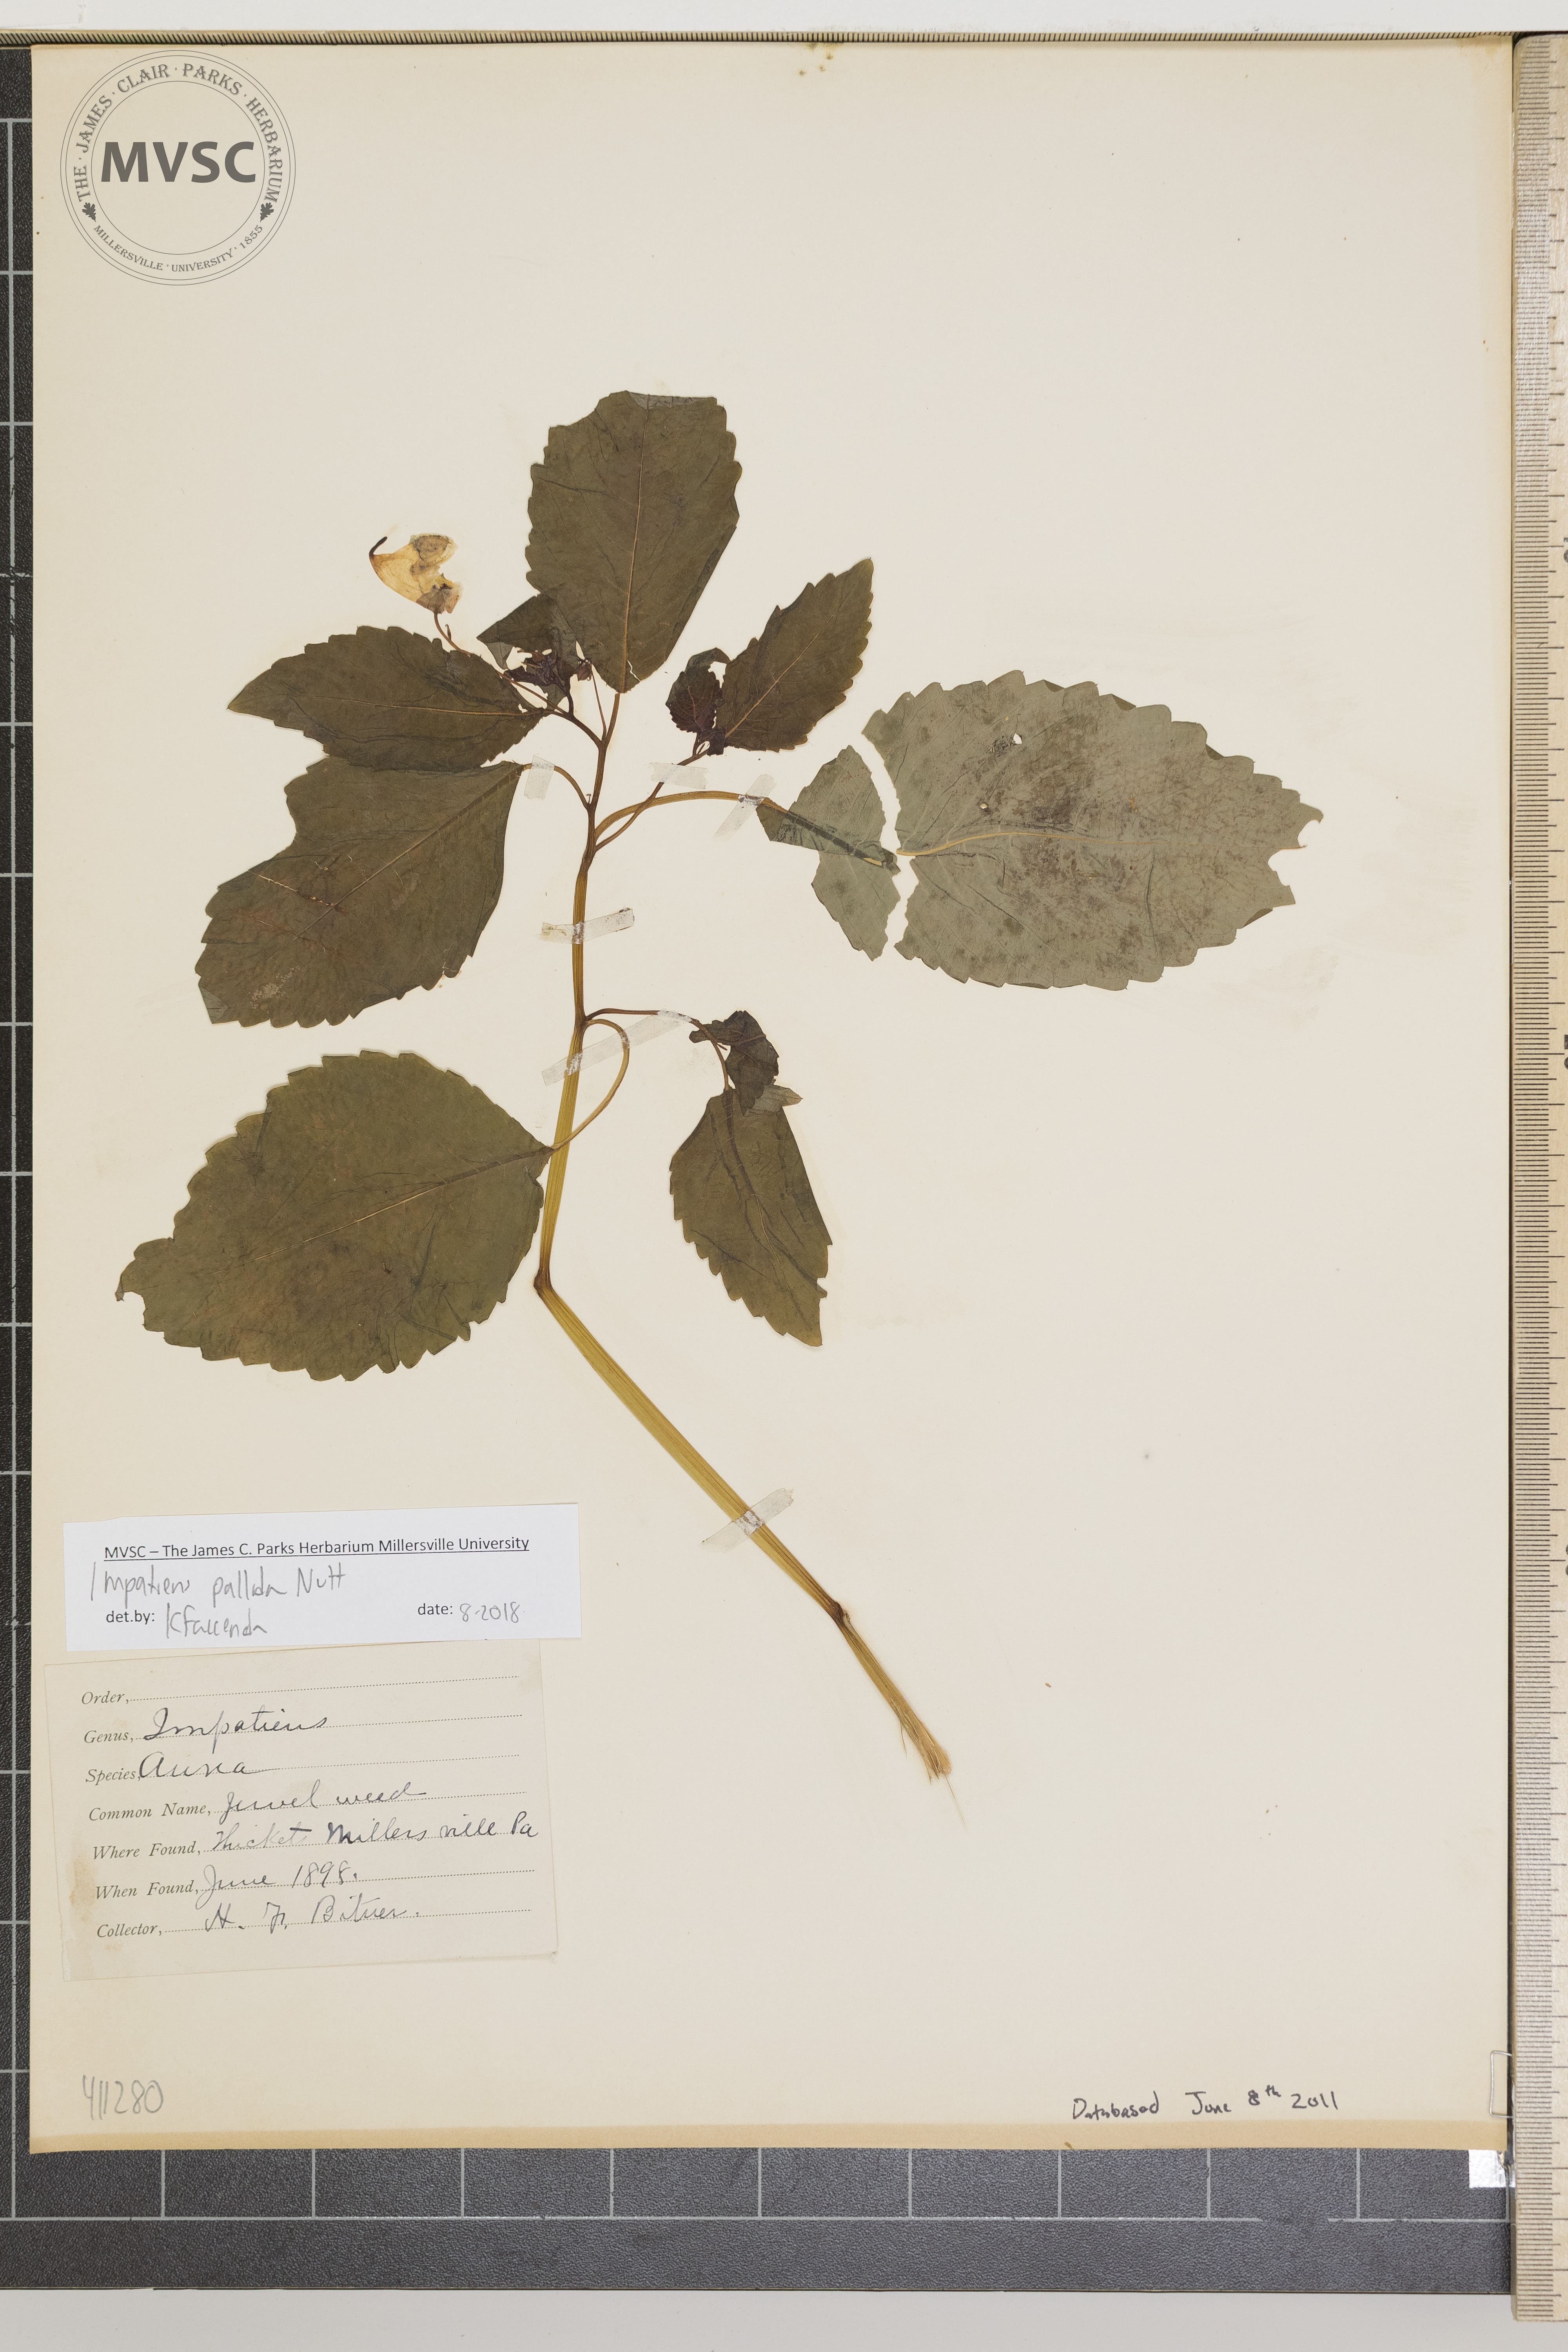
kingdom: Plantae
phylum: Tracheophyta
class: Magnoliopsida
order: Ericales
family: Balsaminaceae
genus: Impatiens
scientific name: Impatiens pallida
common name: Pale snapweed
